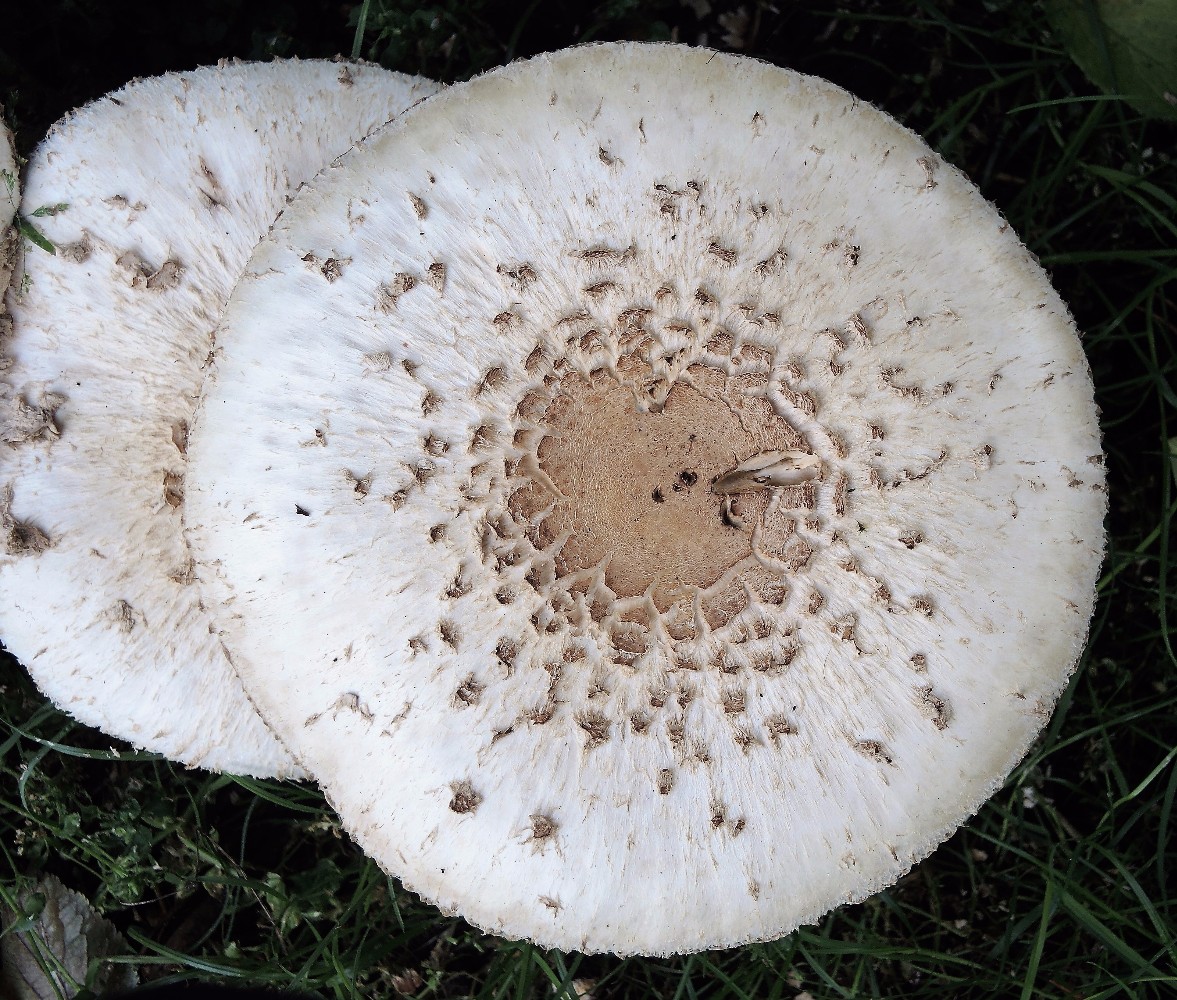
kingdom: Fungi
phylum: Basidiomycota
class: Agaricomycetes
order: Agaricales
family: Agaricaceae
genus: Chlorophyllum
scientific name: Chlorophyllum rhacodes
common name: ægte rabarberhat
